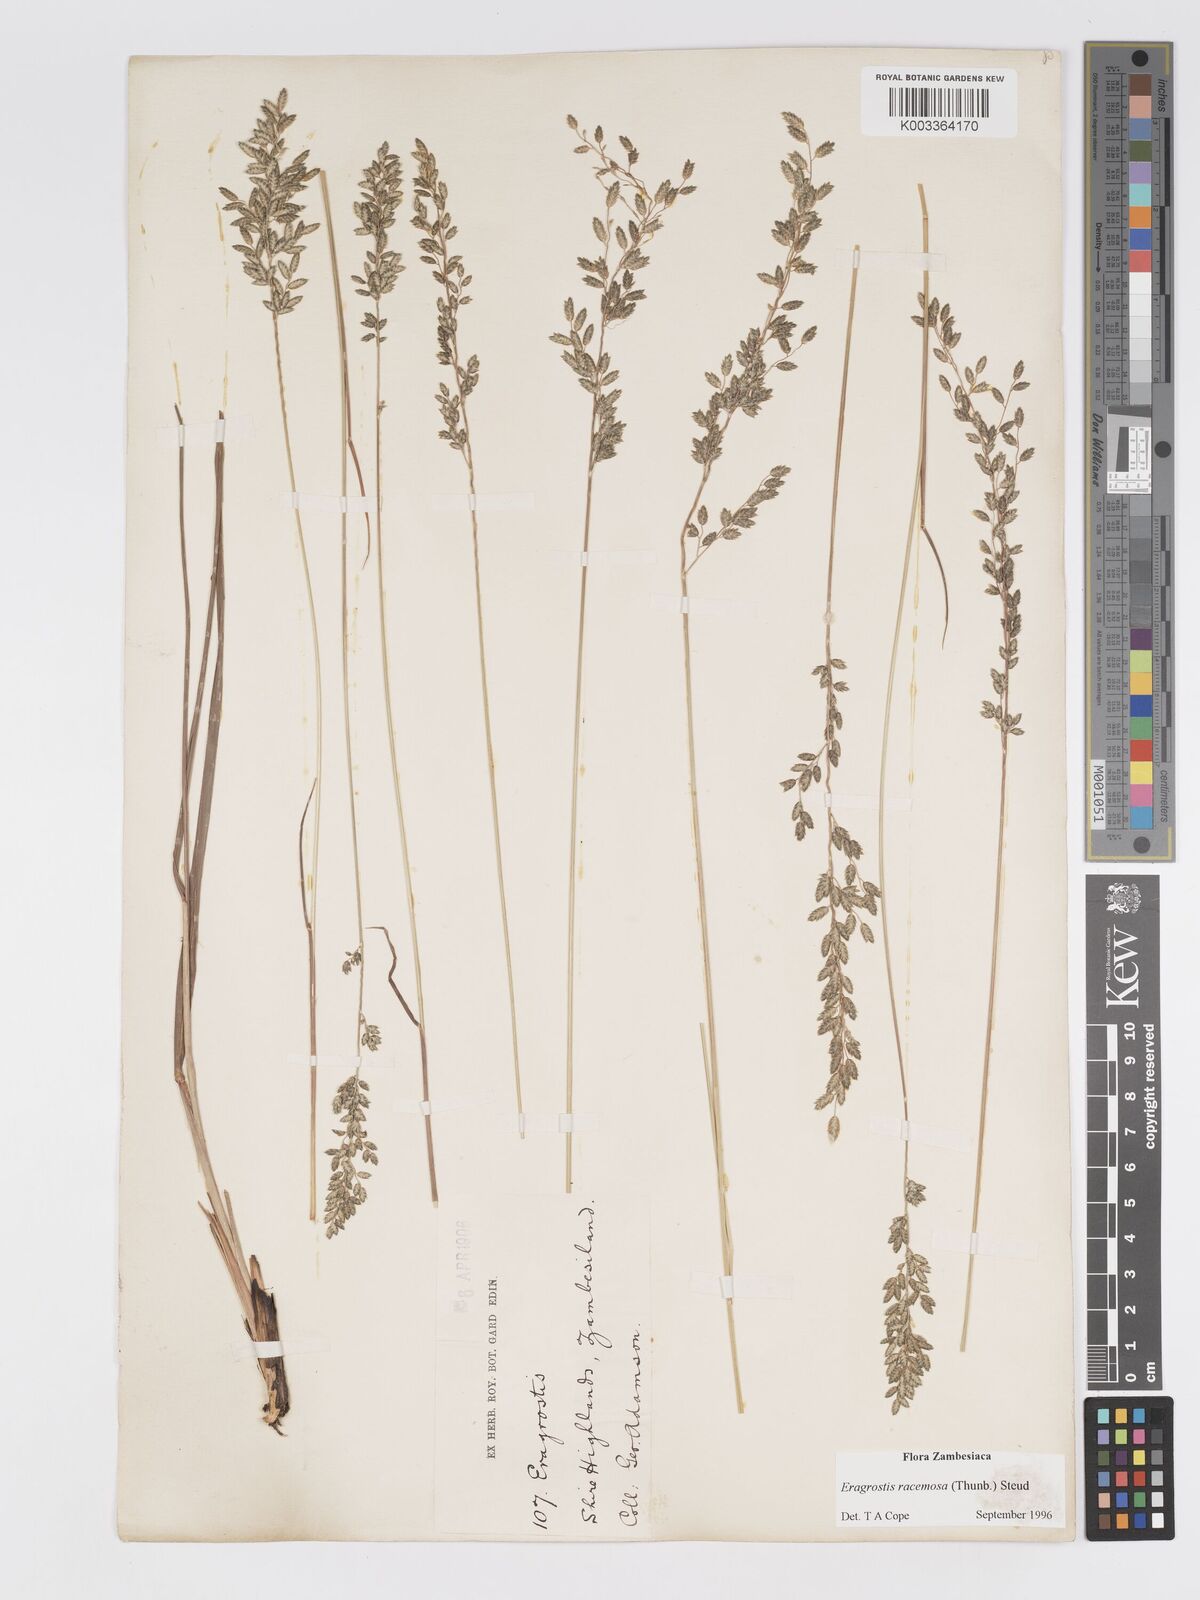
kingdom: Plantae
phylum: Tracheophyta
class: Liliopsida
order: Poales
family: Poaceae
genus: Eragrostis
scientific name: Eragrostis racemosa
